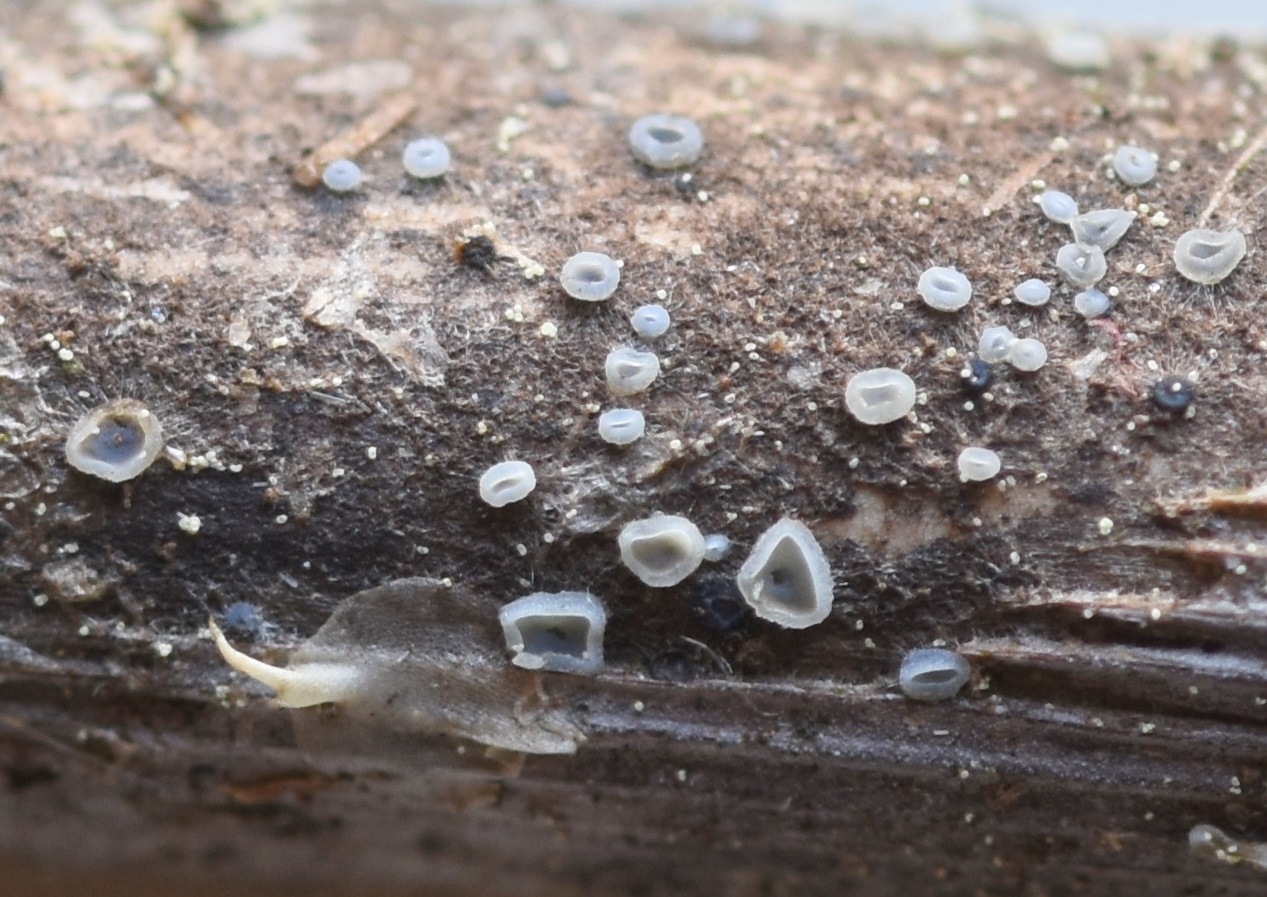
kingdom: Fungi
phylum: Ascomycota
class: Leotiomycetes
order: Helotiales
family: Mollisiaceae
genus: Mollisia
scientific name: Mollisia
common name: gråskive
